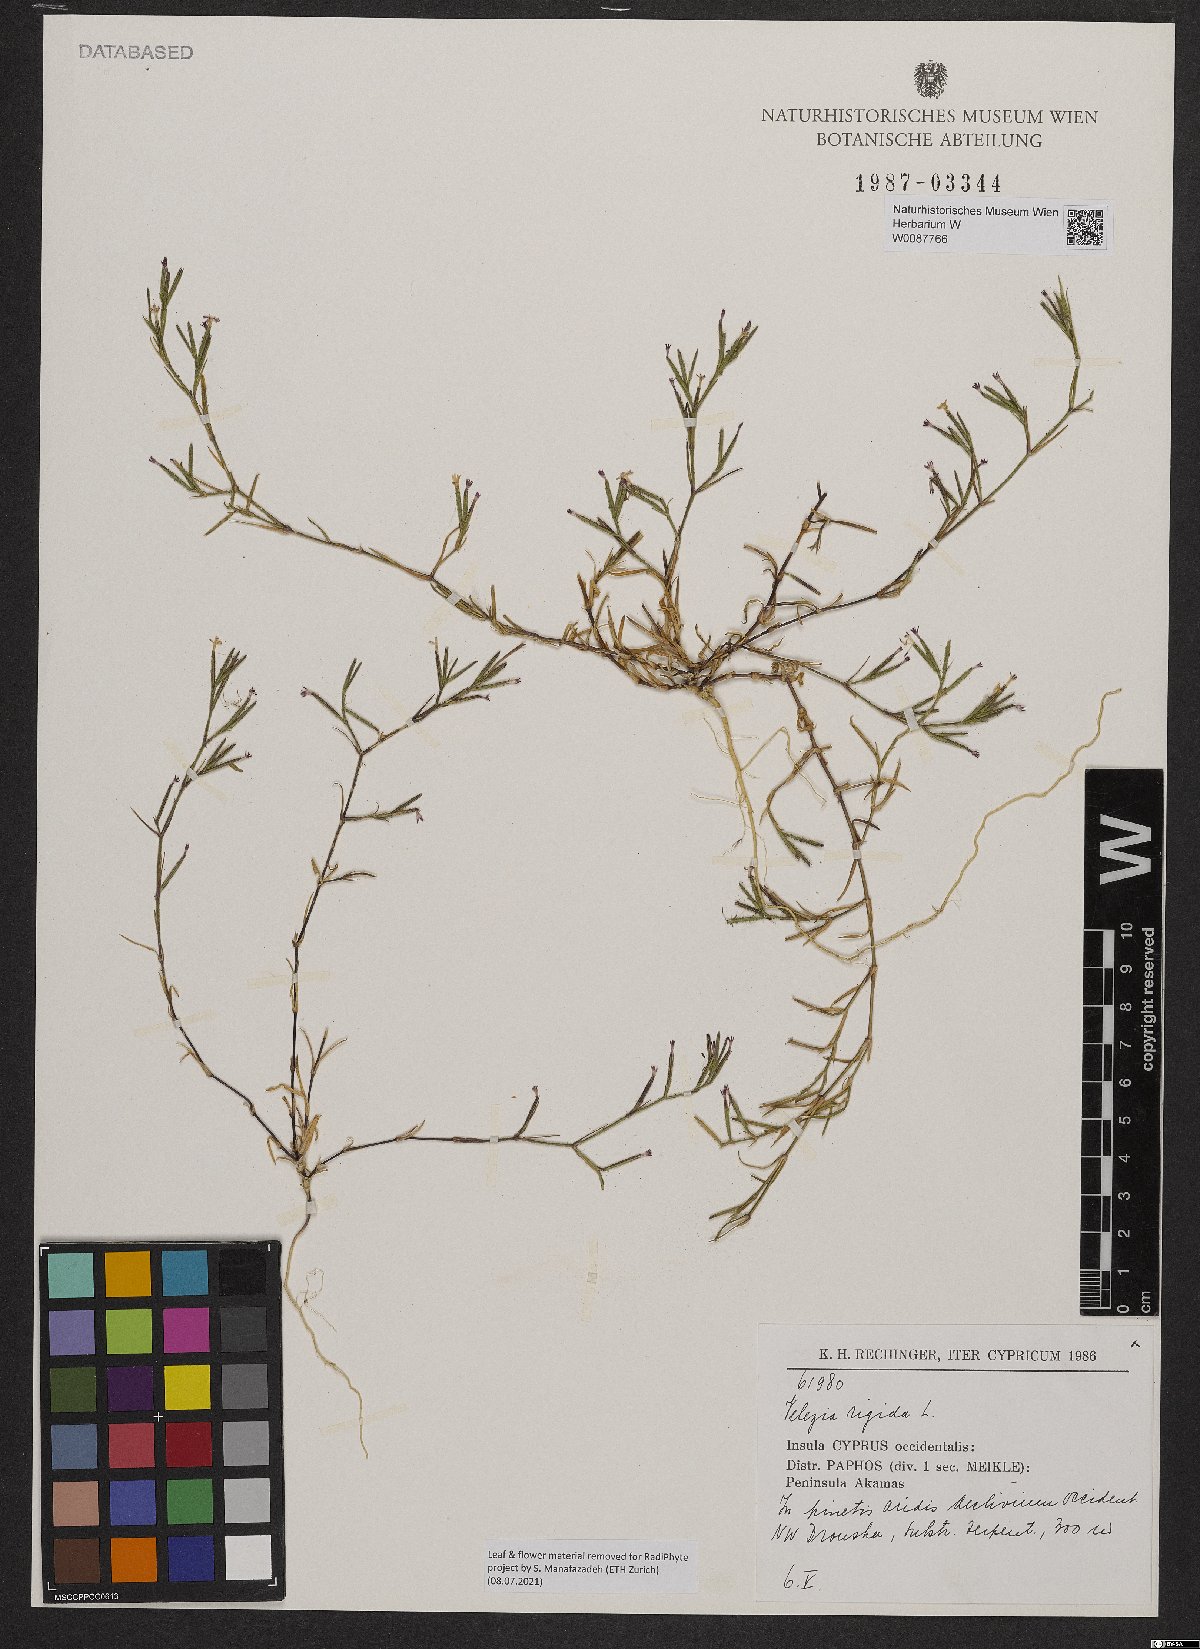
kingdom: Plantae
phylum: Tracheophyta
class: Magnoliopsida
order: Caryophyllales
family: Caryophyllaceae
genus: Dianthus
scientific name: Dianthus nudiflorus
